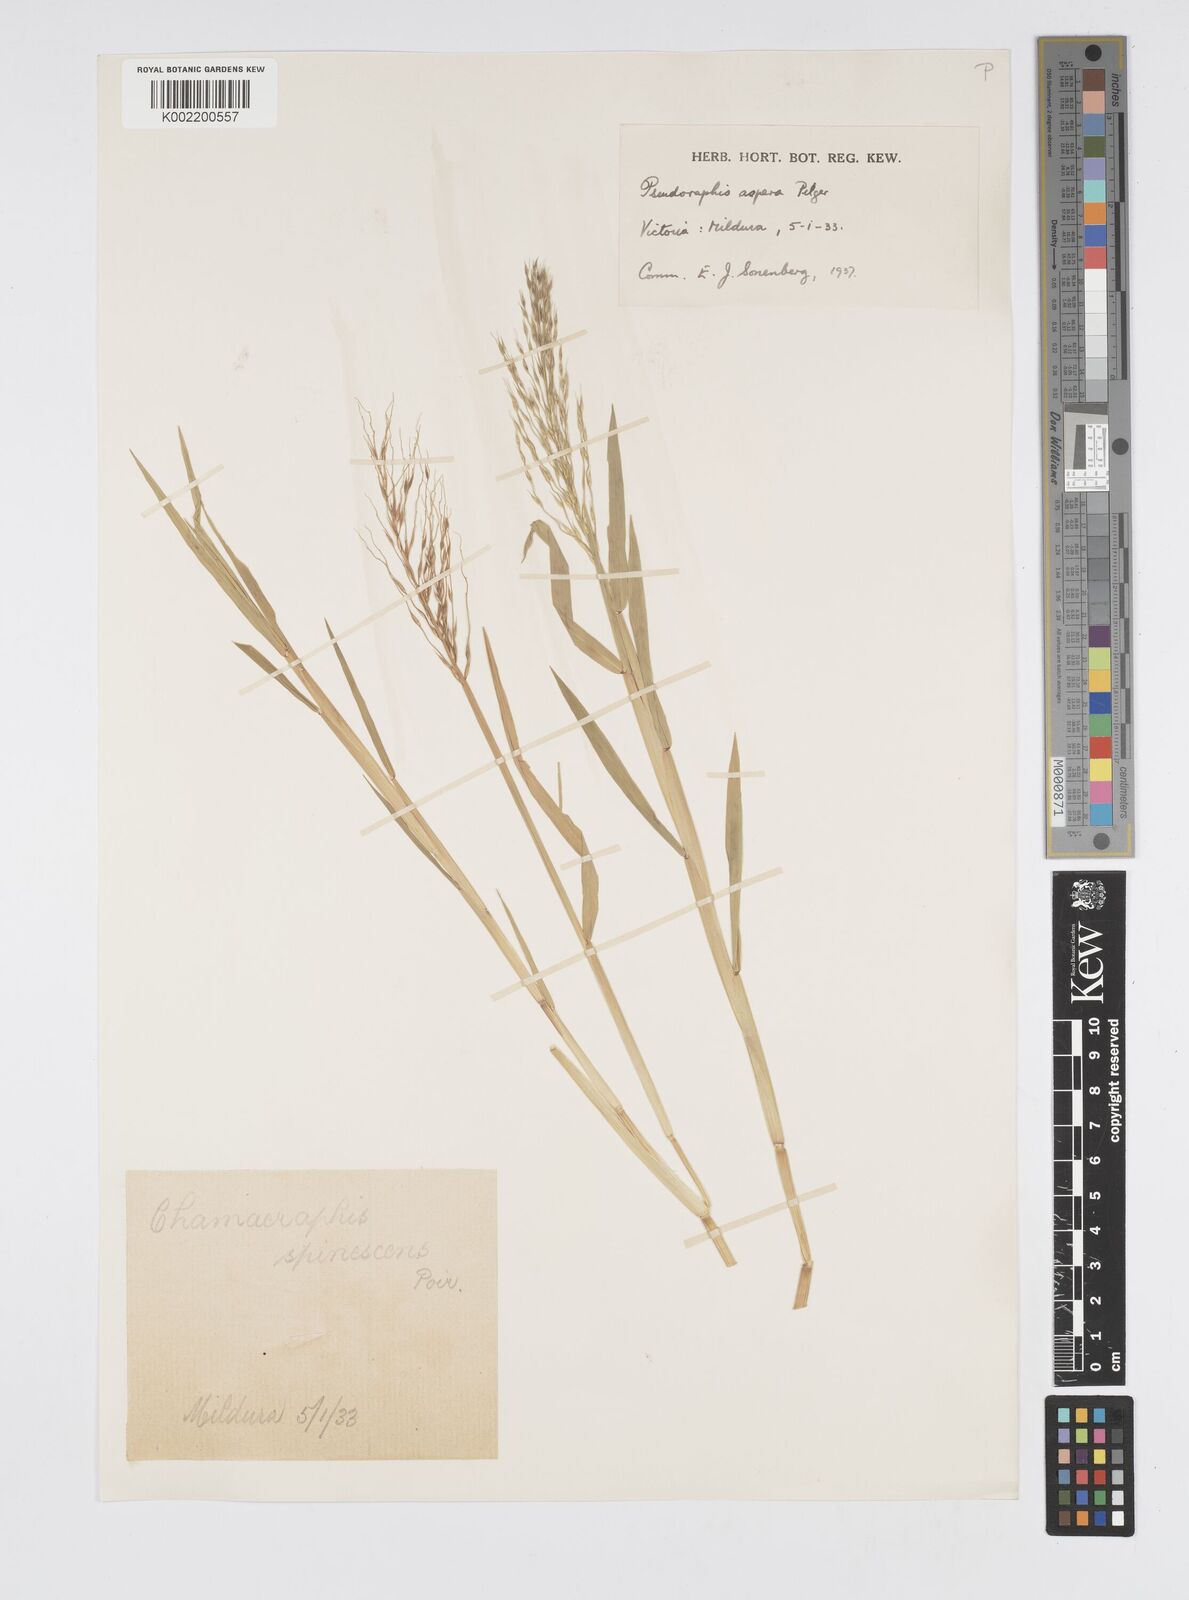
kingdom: Plantae
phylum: Tracheophyta
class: Liliopsida
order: Poales
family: Poaceae
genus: Pseudoraphis
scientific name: Pseudoraphis spinescens
